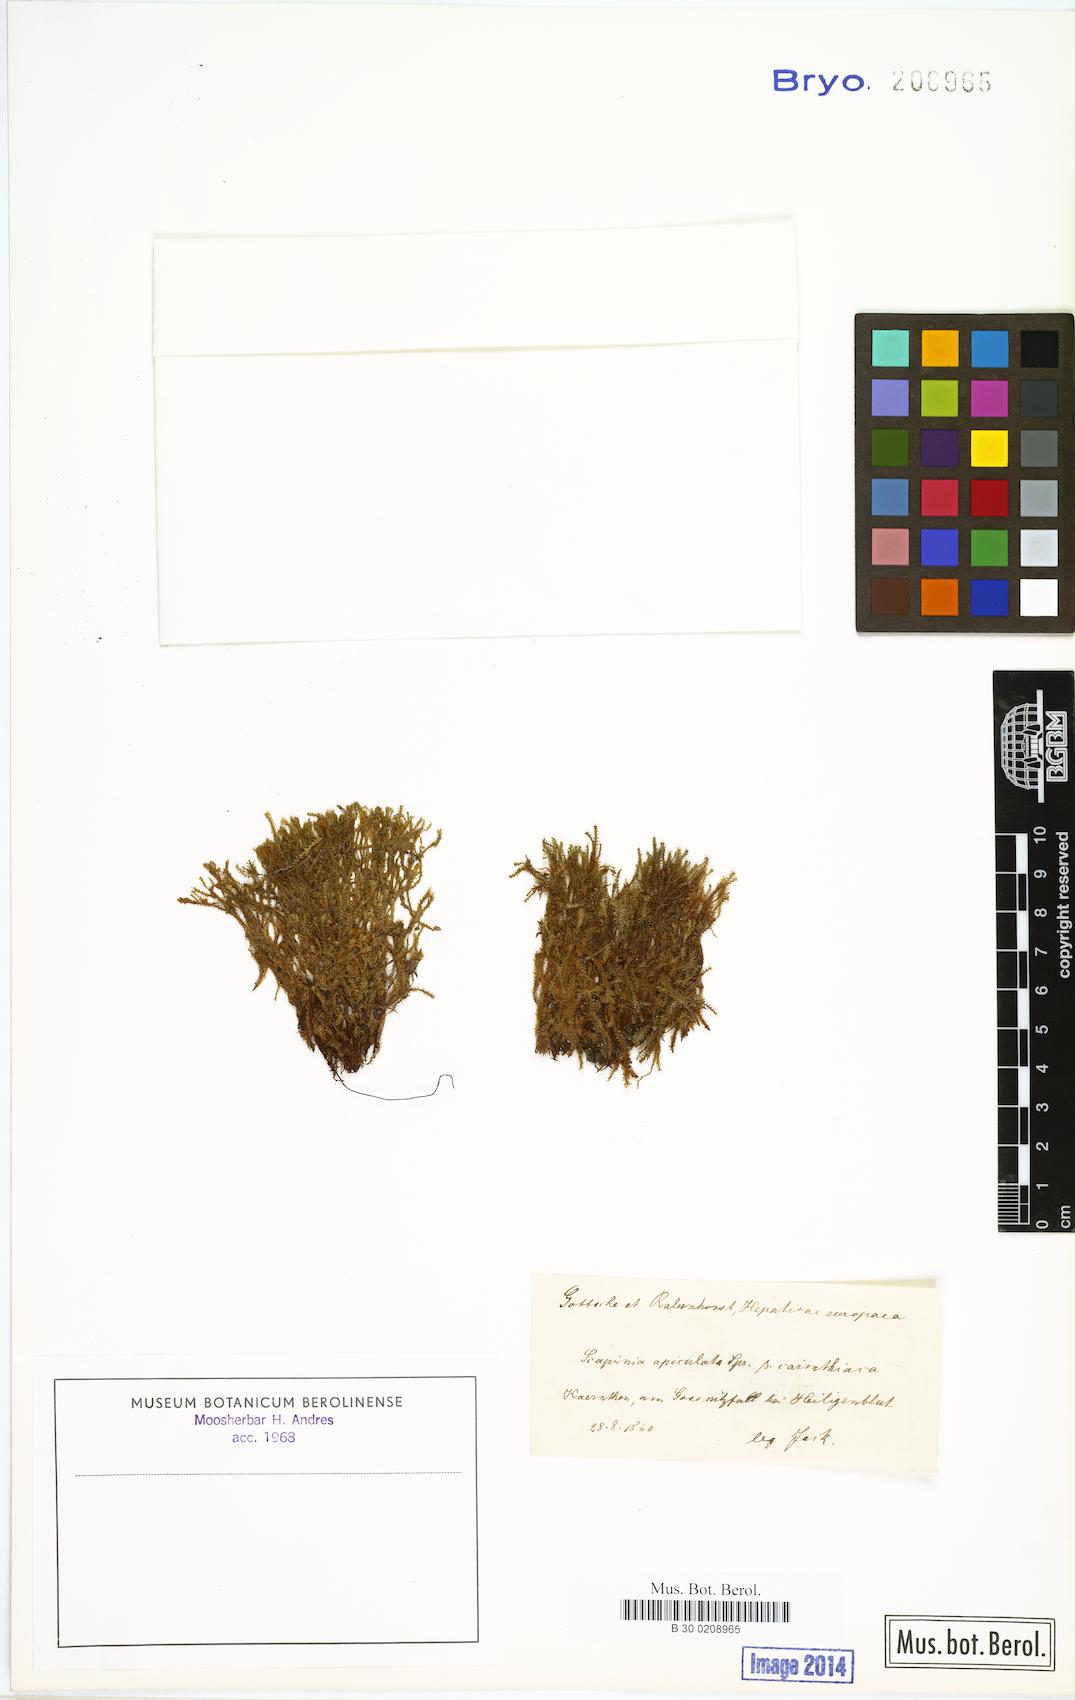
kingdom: Plantae
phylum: Marchantiophyta
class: Jungermanniopsida
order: Jungermanniales
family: Scapaniaceae
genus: Scapania
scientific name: Scapania carinthiaca
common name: Carinthian earwort
